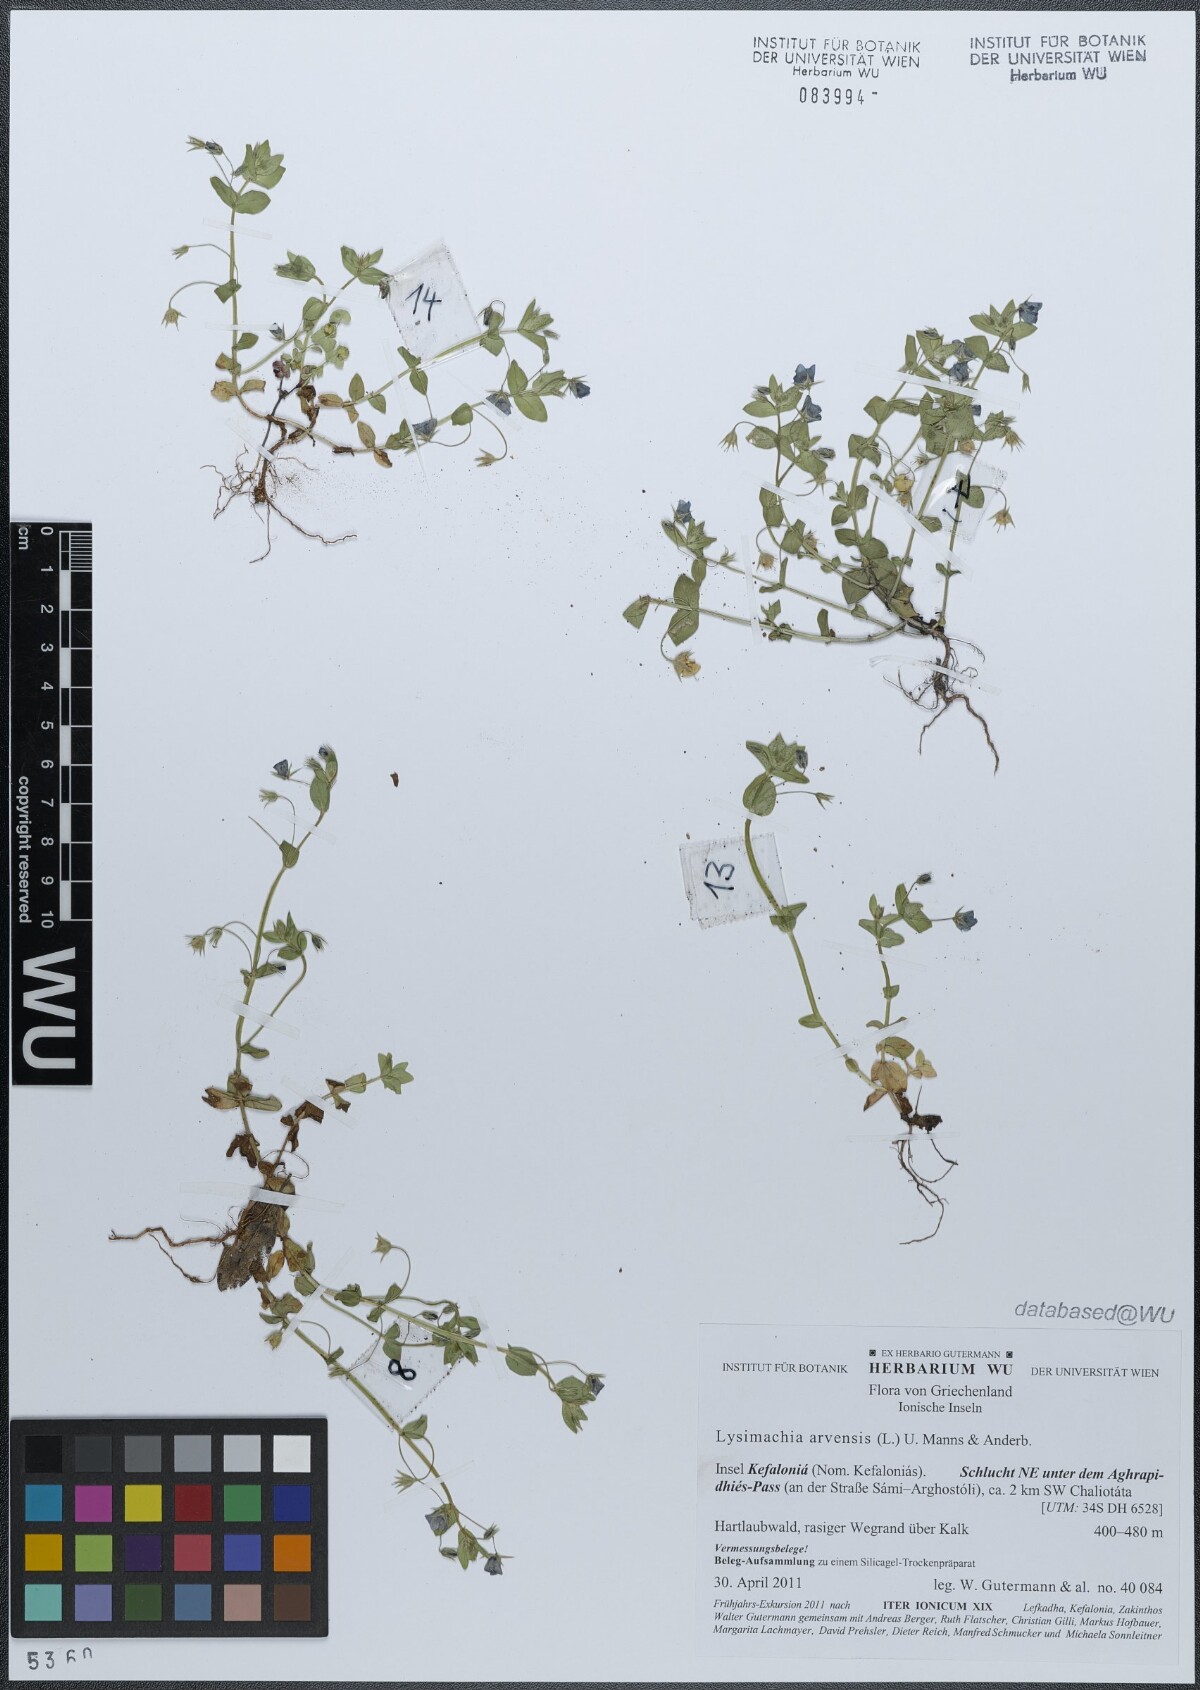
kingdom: Plantae
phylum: Tracheophyta
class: Magnoliopsida
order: Ericales
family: Primulaceae
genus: Lysimachia
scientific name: Lysimachia arvensis
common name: Scarlet pimpernel
